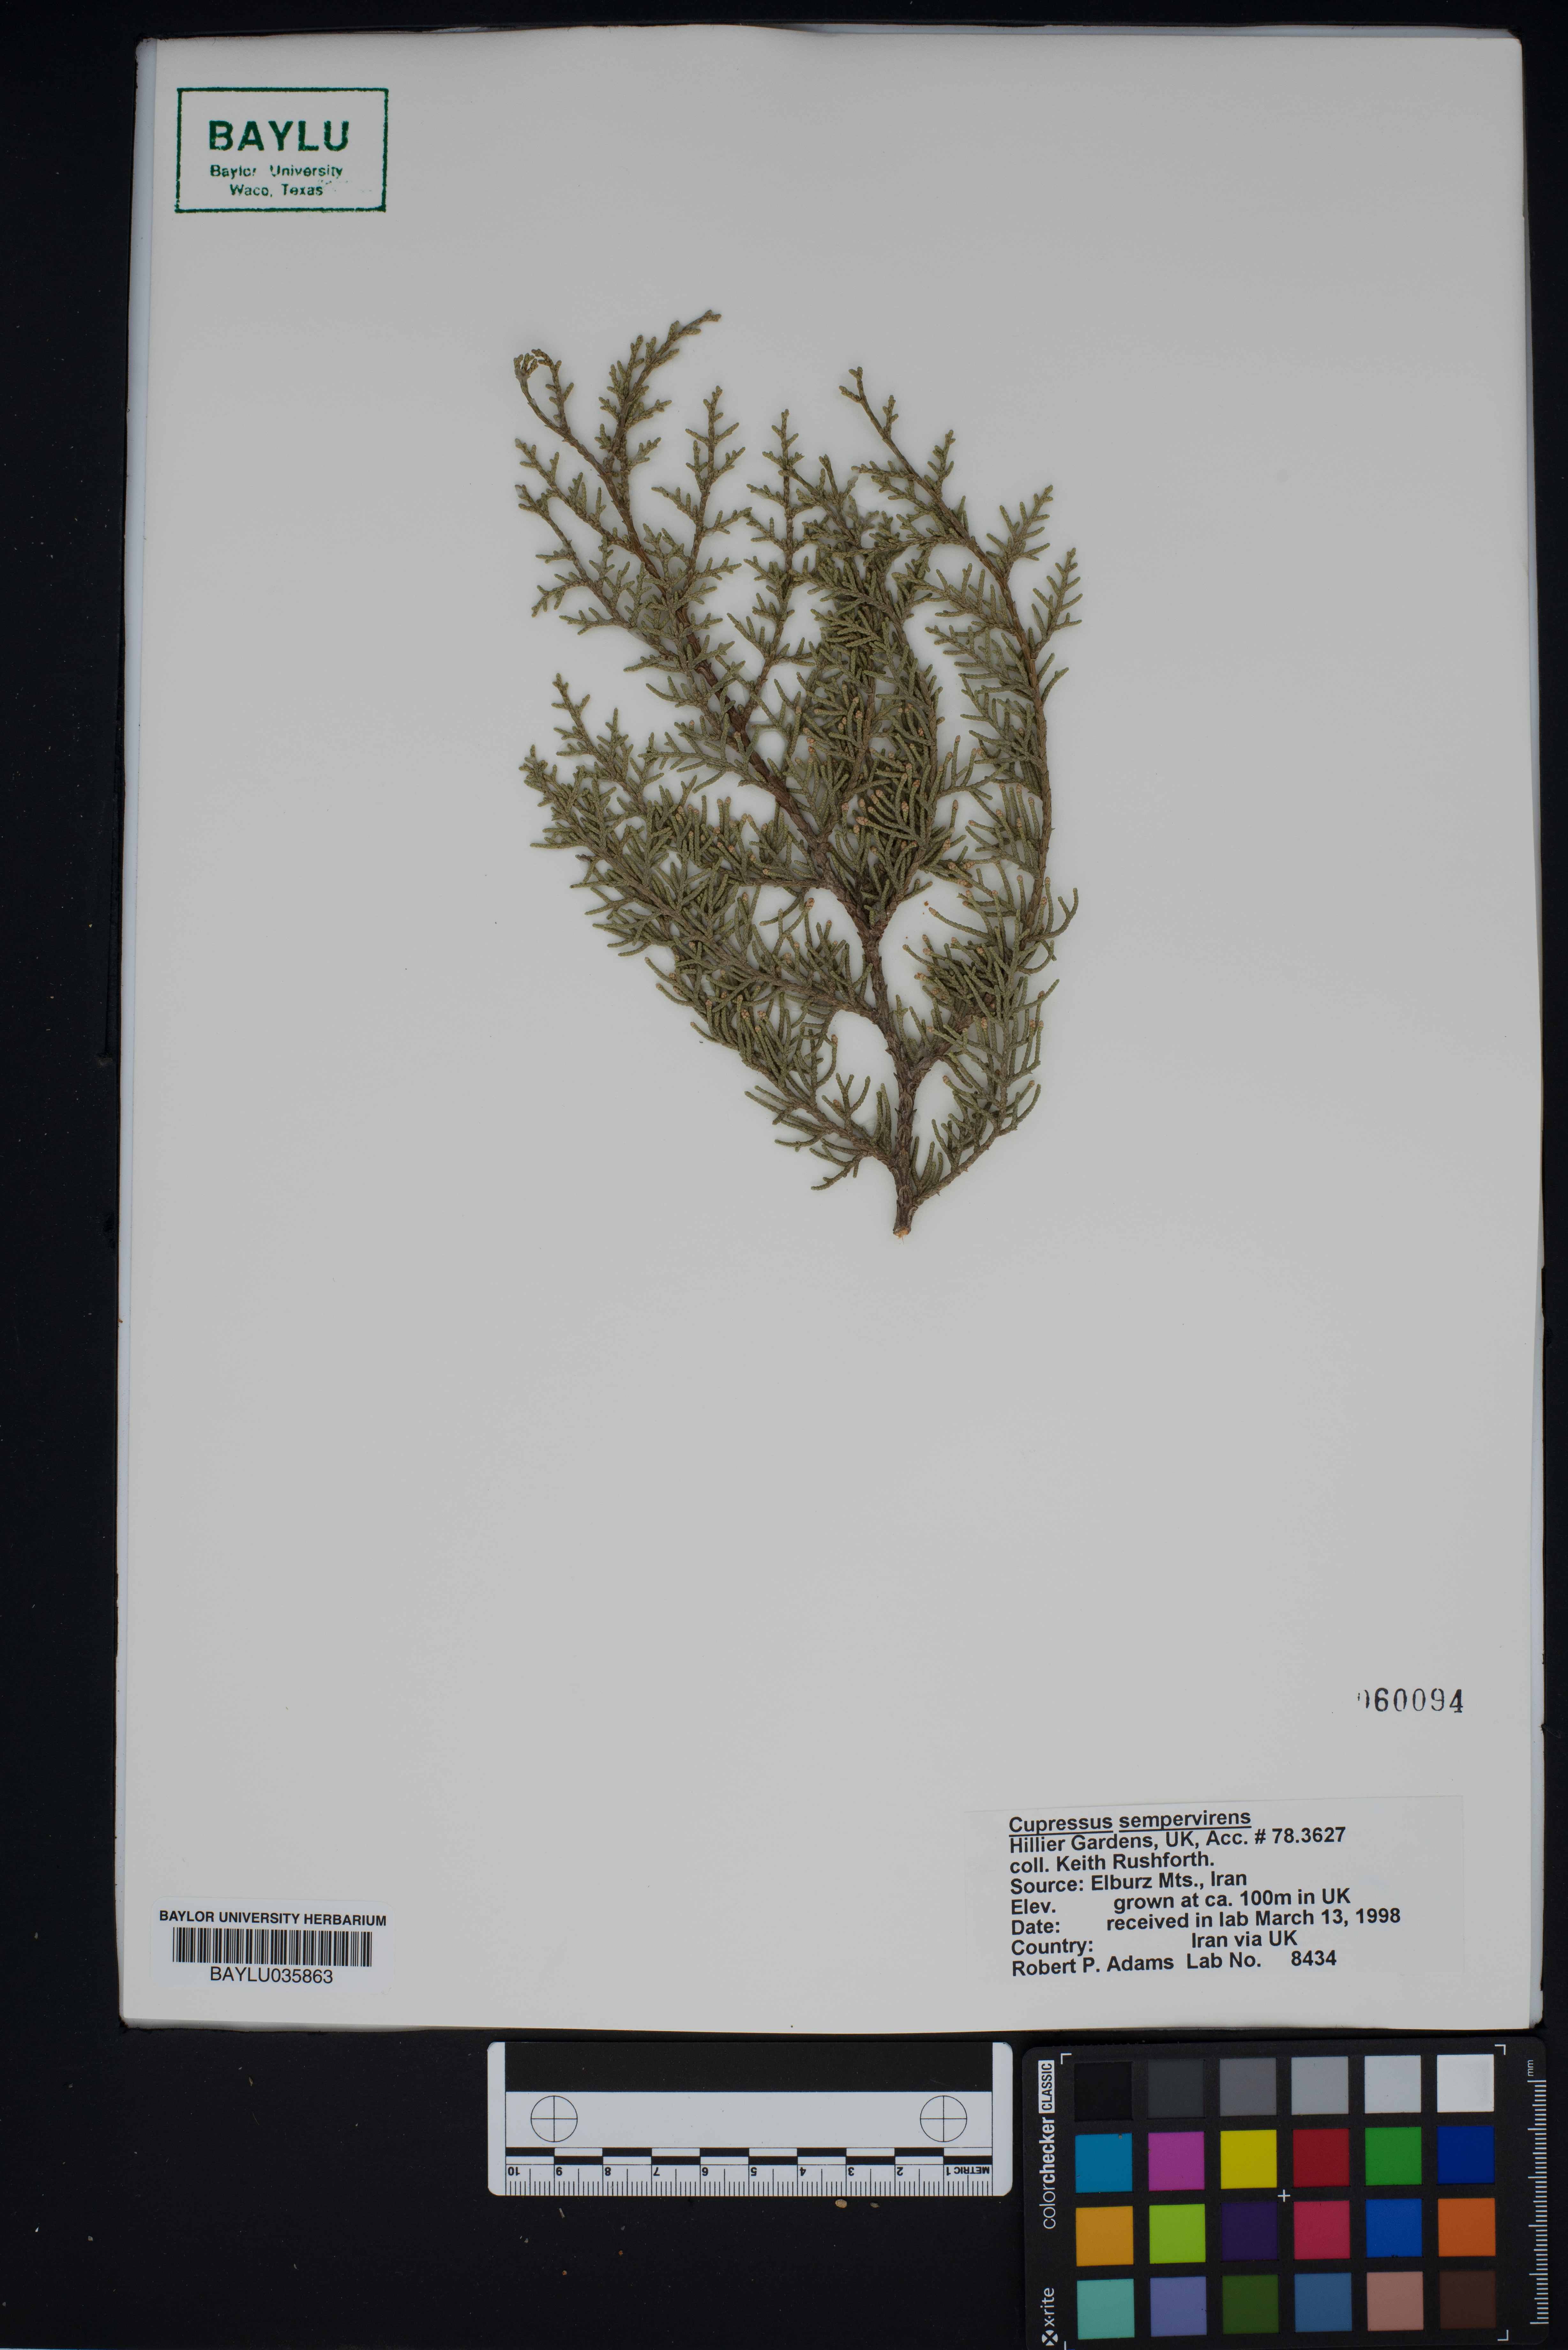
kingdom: Plantae
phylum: Tracheophyta
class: Pinopsida
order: Pinales
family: Cupressaceae
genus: Cupressus
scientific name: Cupressus sempervirens
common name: Italian cypress
